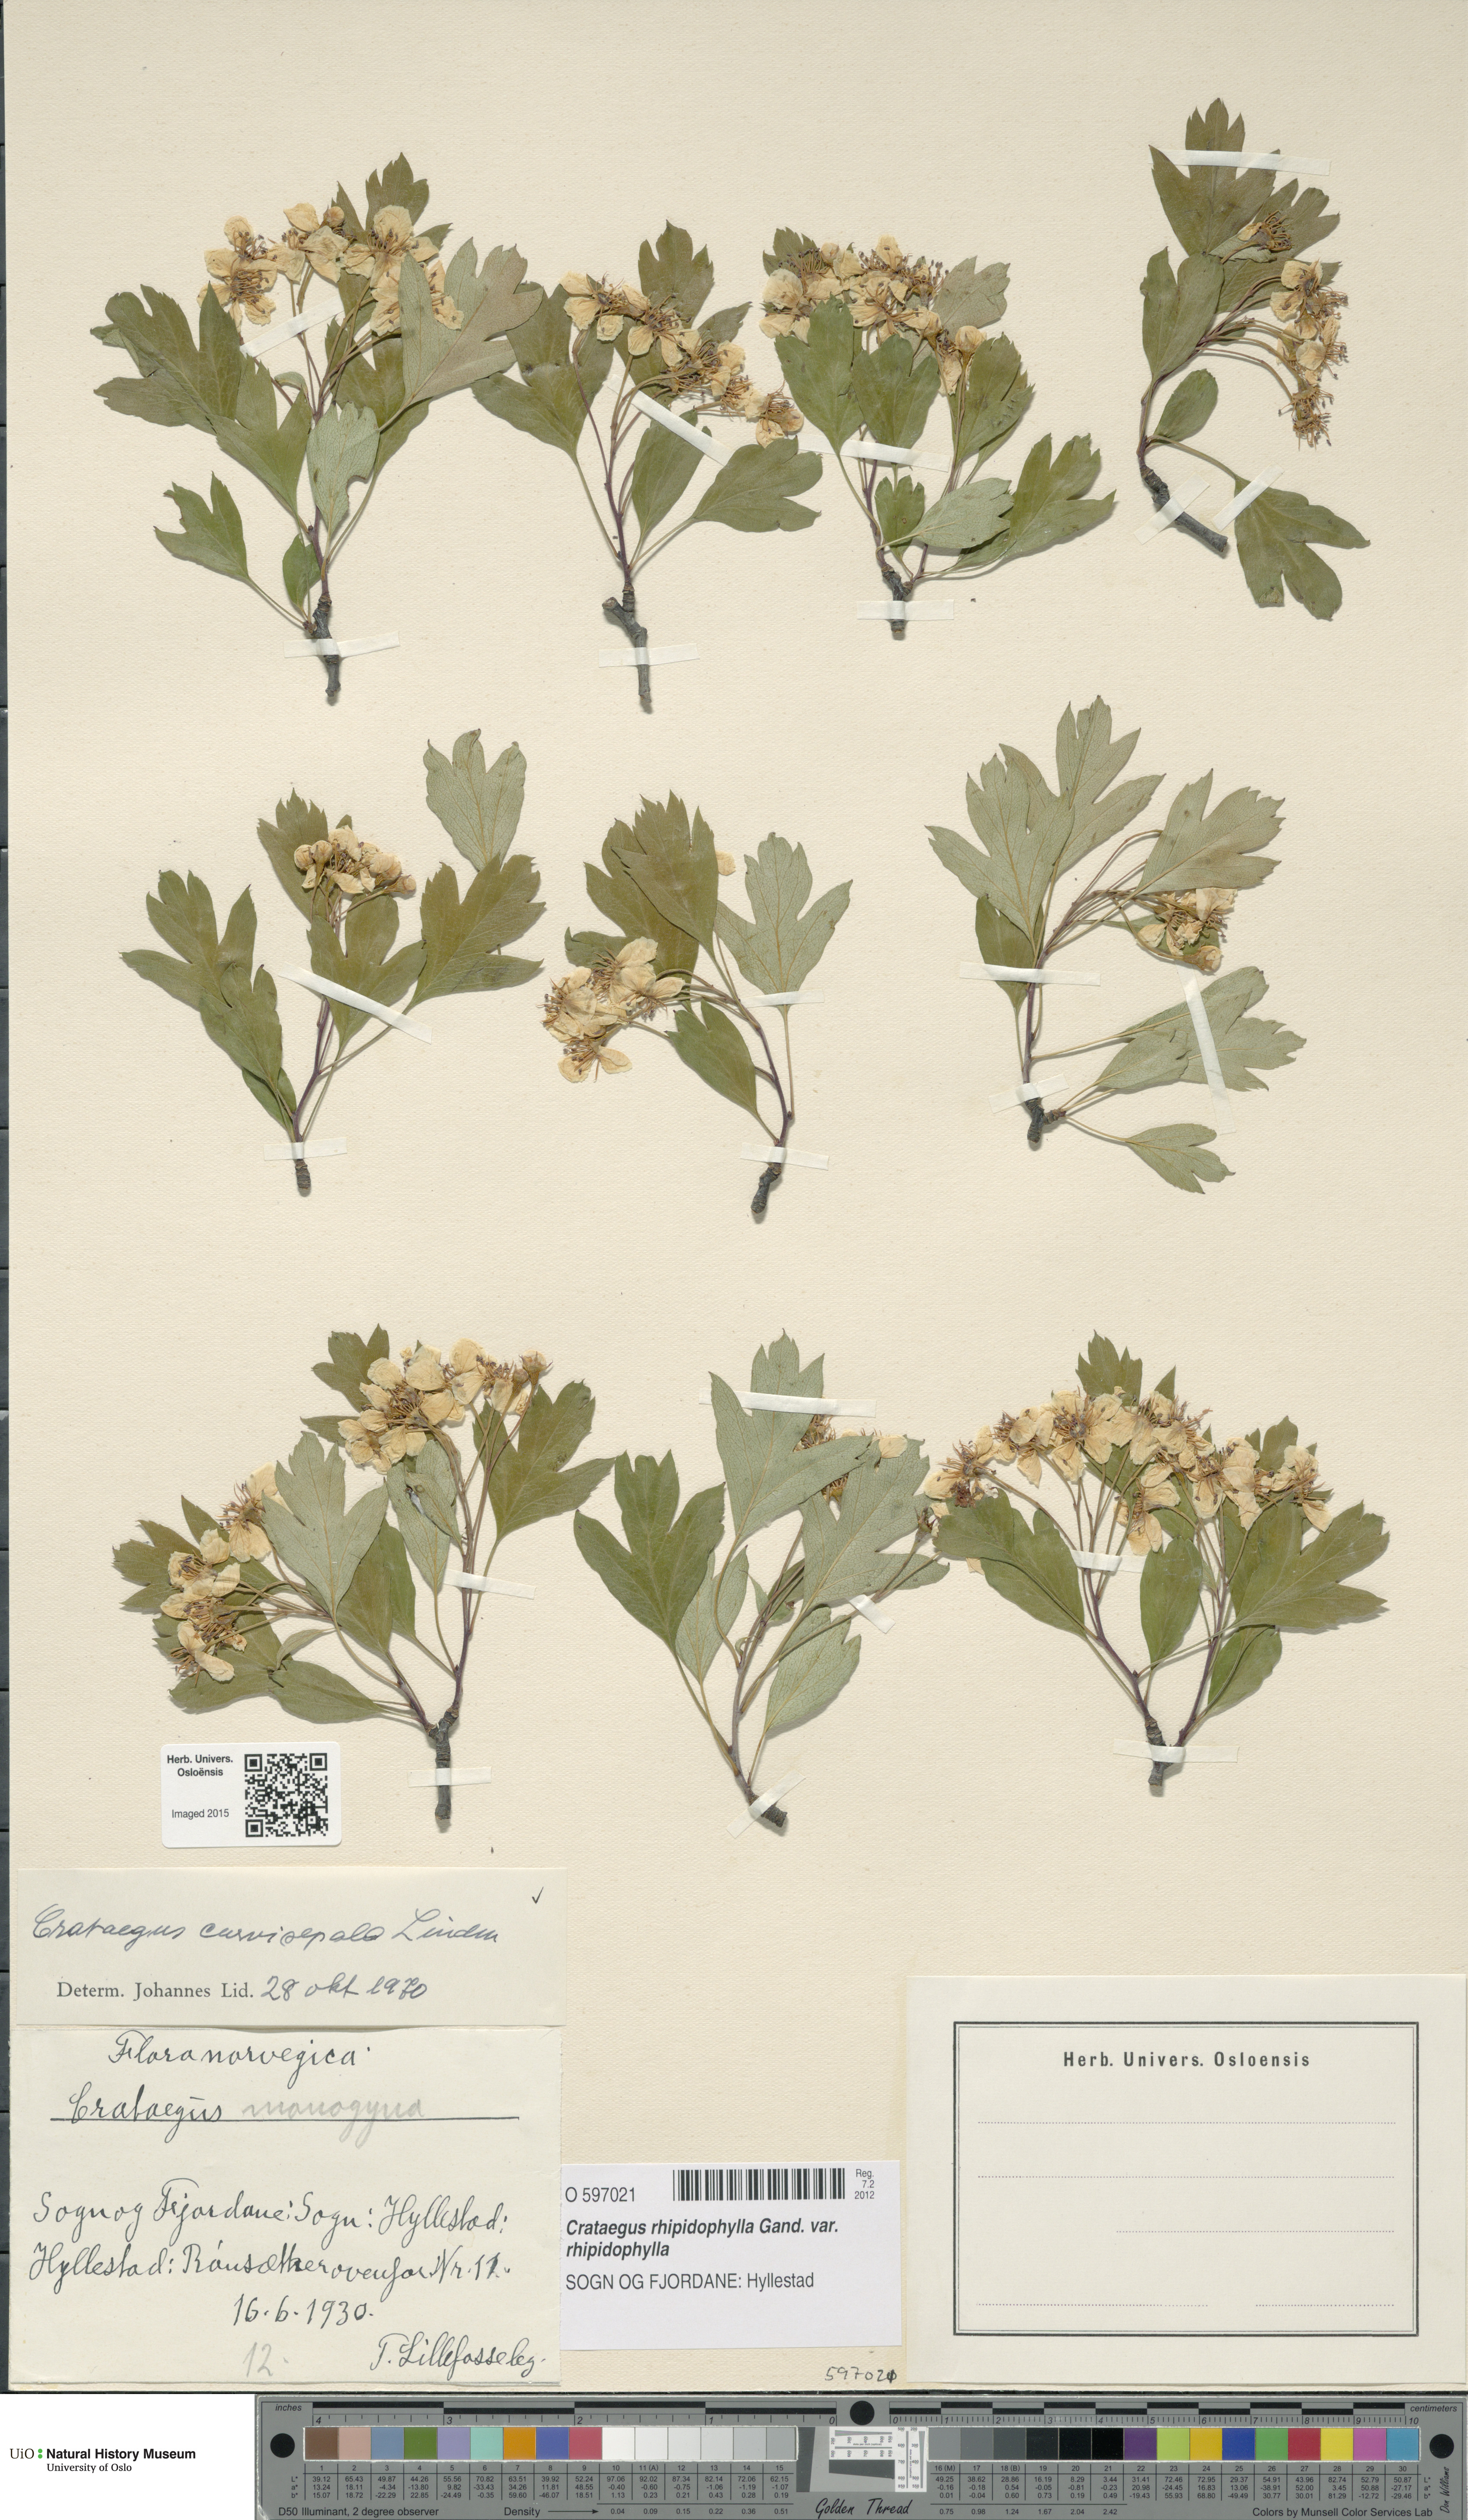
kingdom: Plantae
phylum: Tracheophyta
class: Magnoliopsida
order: Rosales
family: Rosaceae
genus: Crataegus
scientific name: Crataegus rhipidophylla
